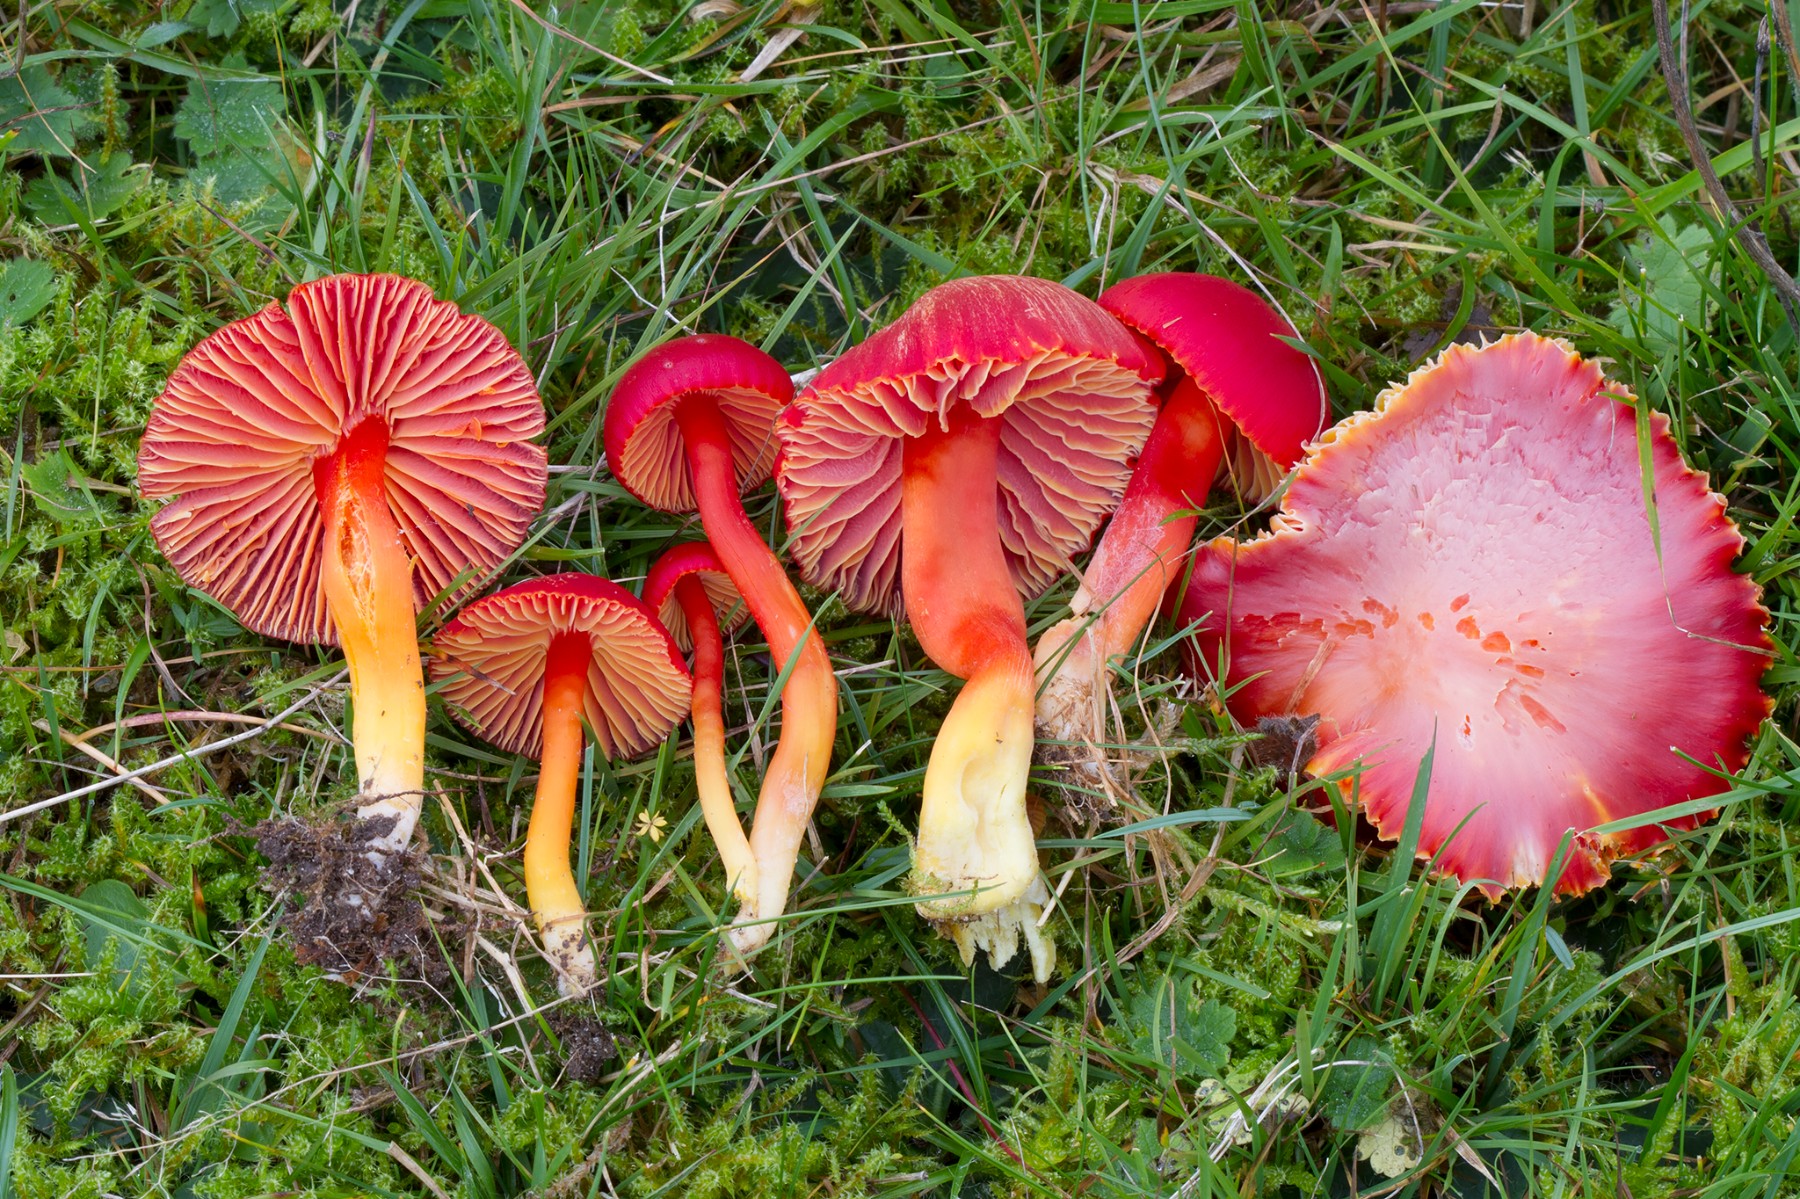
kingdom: Fungi
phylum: Basidiomycota
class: Agaricomycetes
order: Agaricales
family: Hygrophoraceae
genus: Hygrocybe
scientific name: Hygrocybe coccinea
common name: cinnober-vokshat
